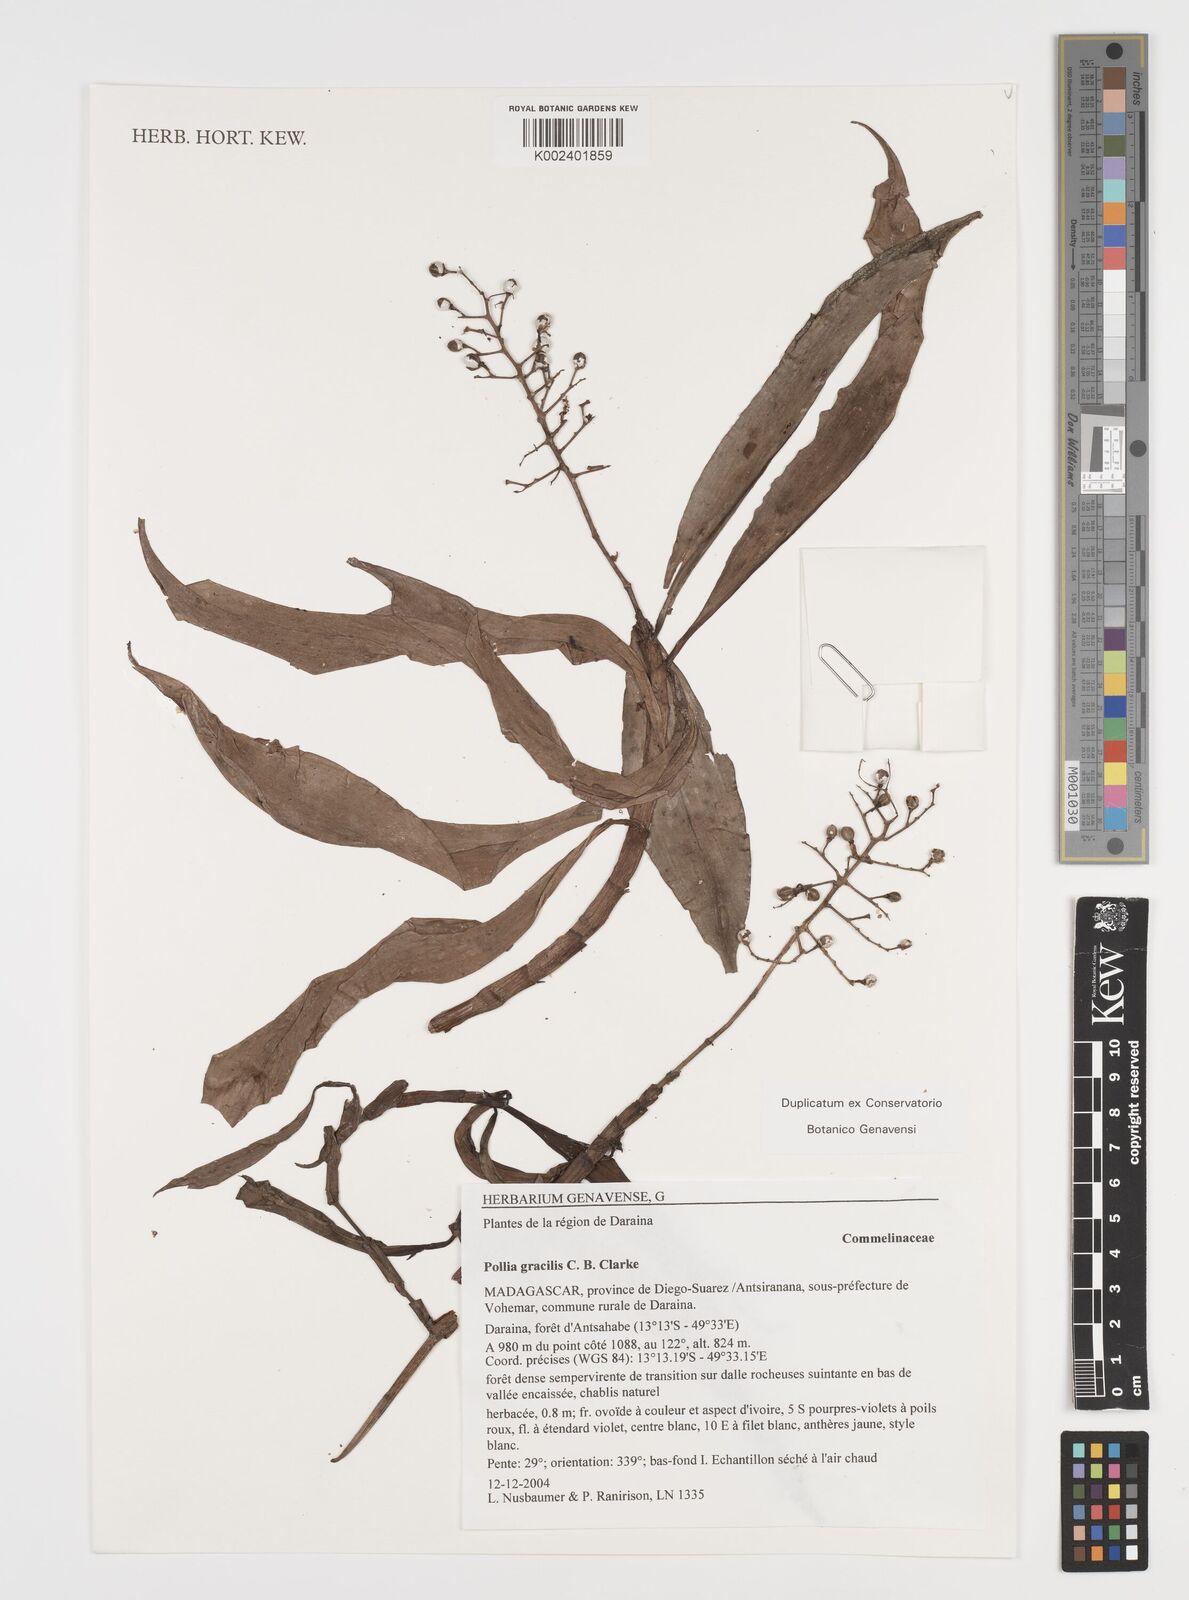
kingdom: Plantae
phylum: Tracheophyta
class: Liliopsida
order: Commelinales
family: Commelinaceae
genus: Pollia
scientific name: Pollia gracilis
